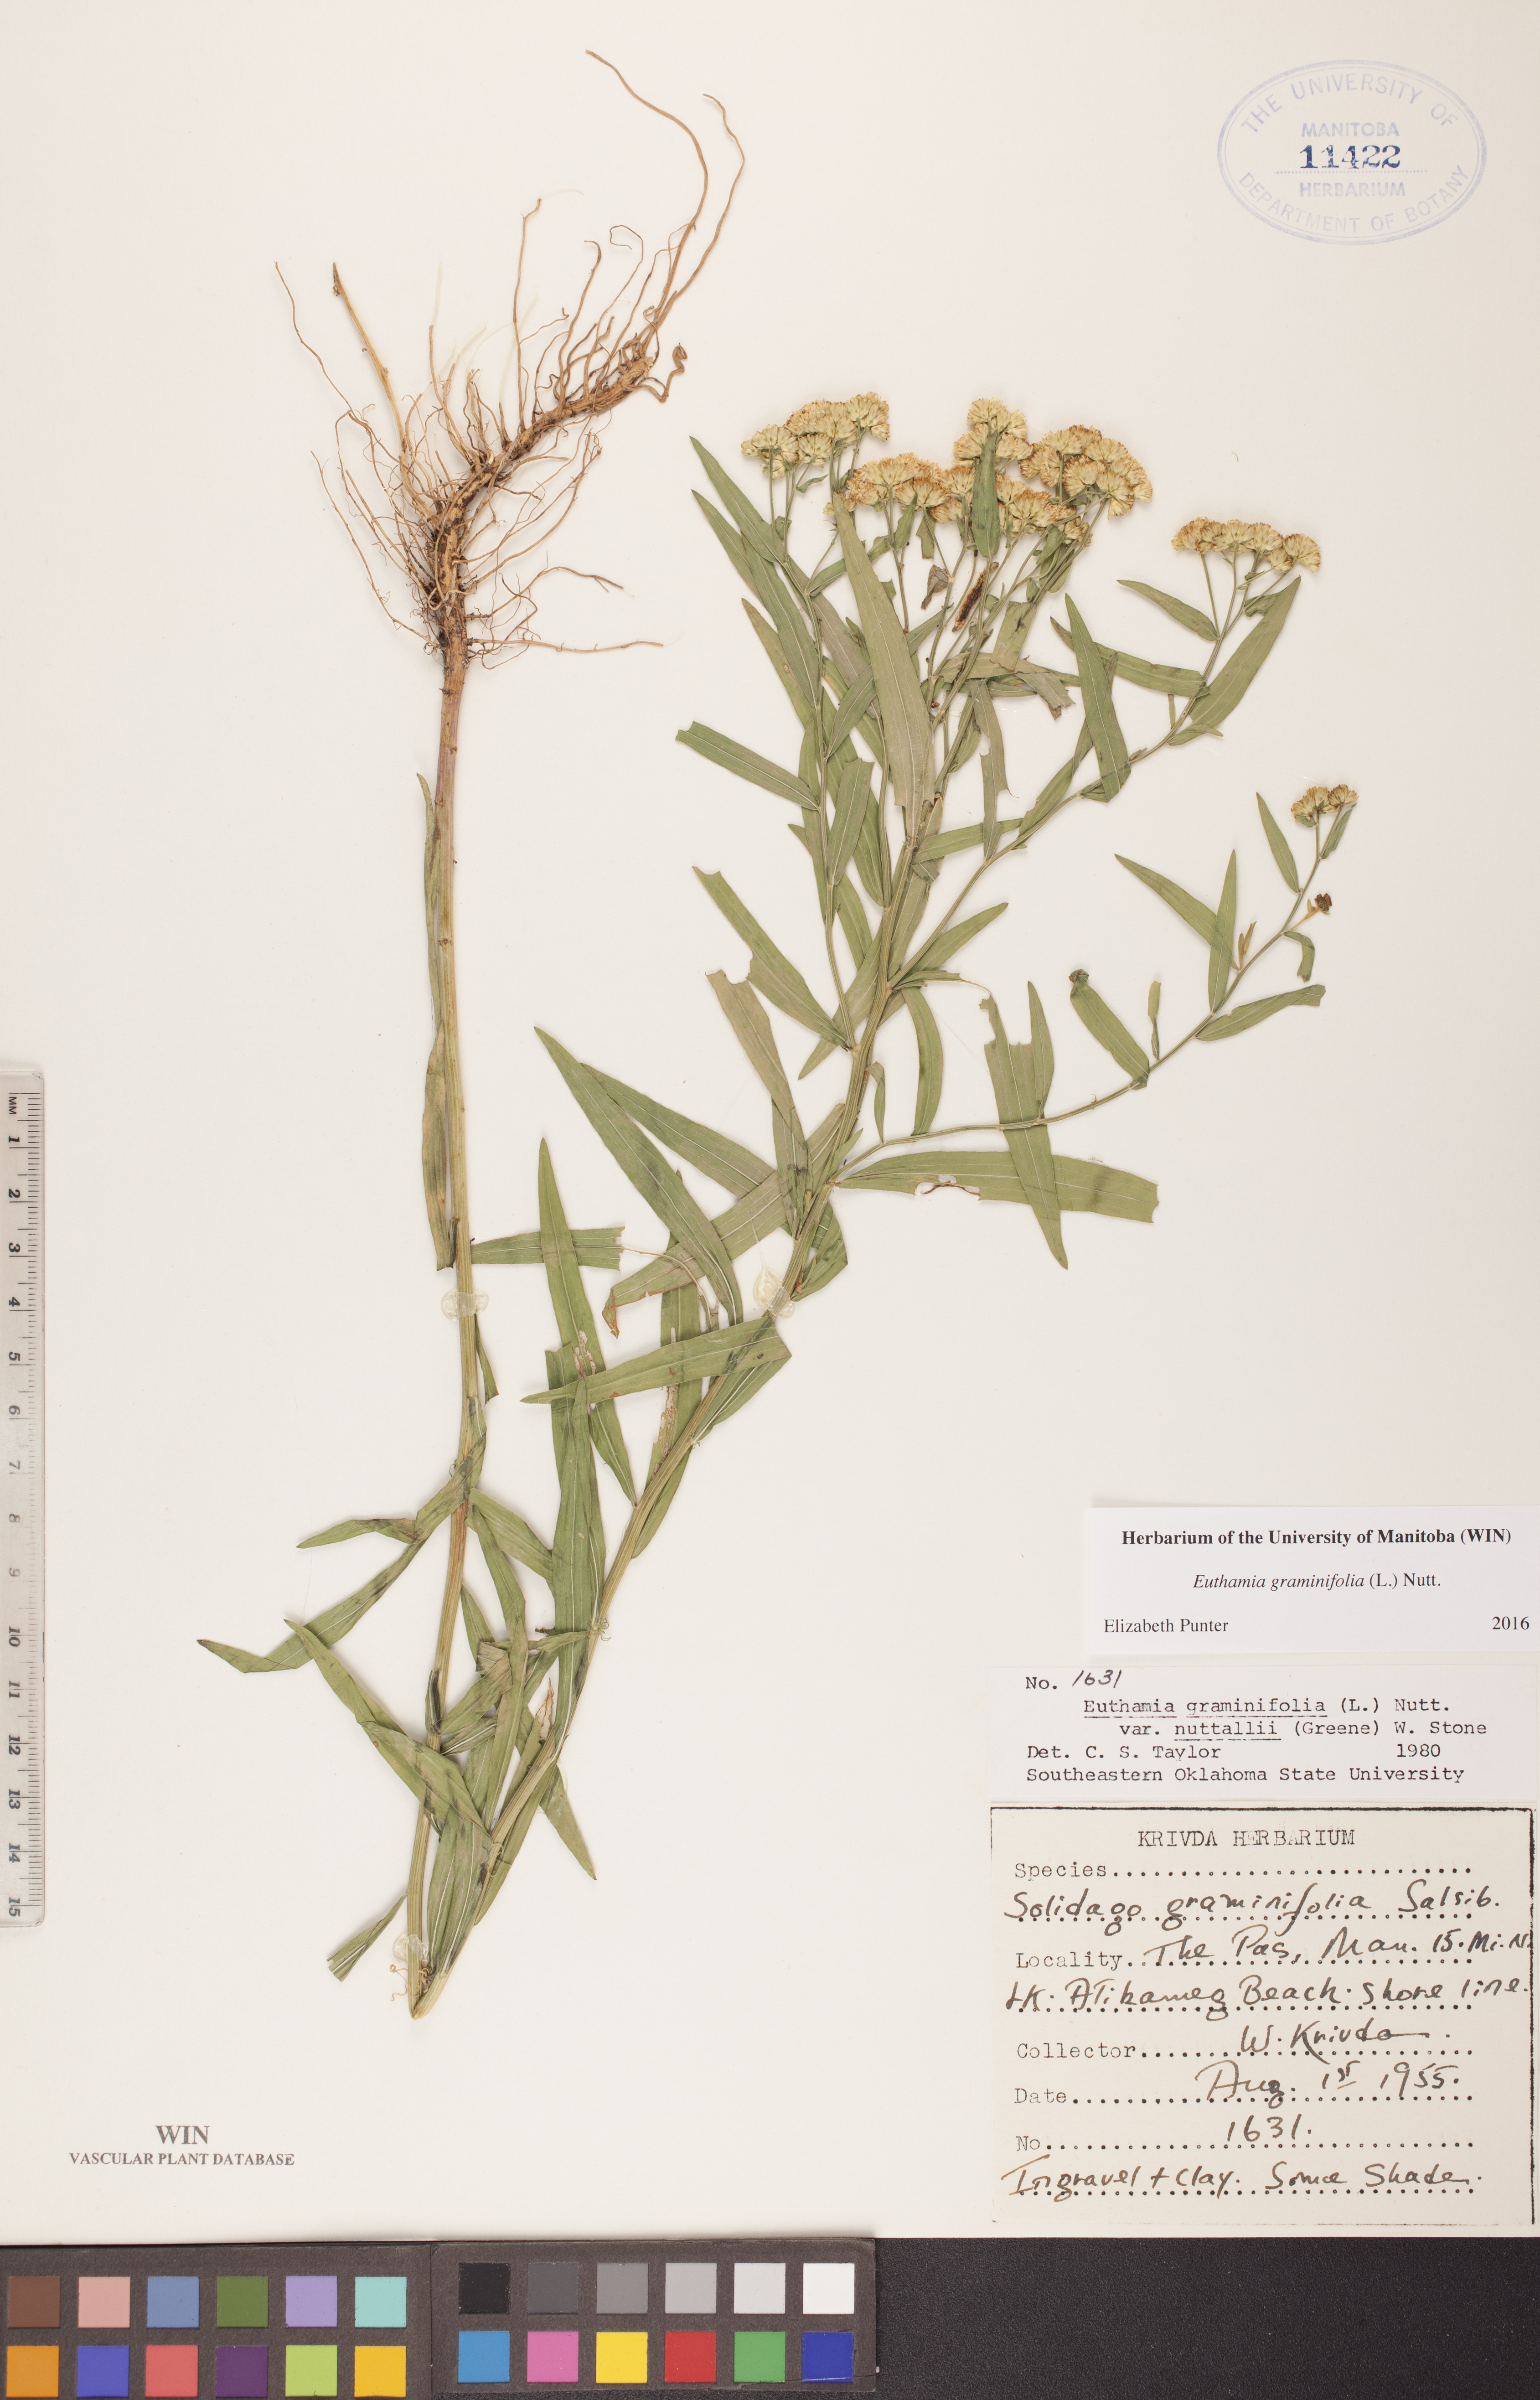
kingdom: Plantae
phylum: Tracheophyta
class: Magnoliopsida
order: Asterales
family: Asteraceae
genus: Euthamia
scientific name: Euthamia graminifolia
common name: Common goldentop
